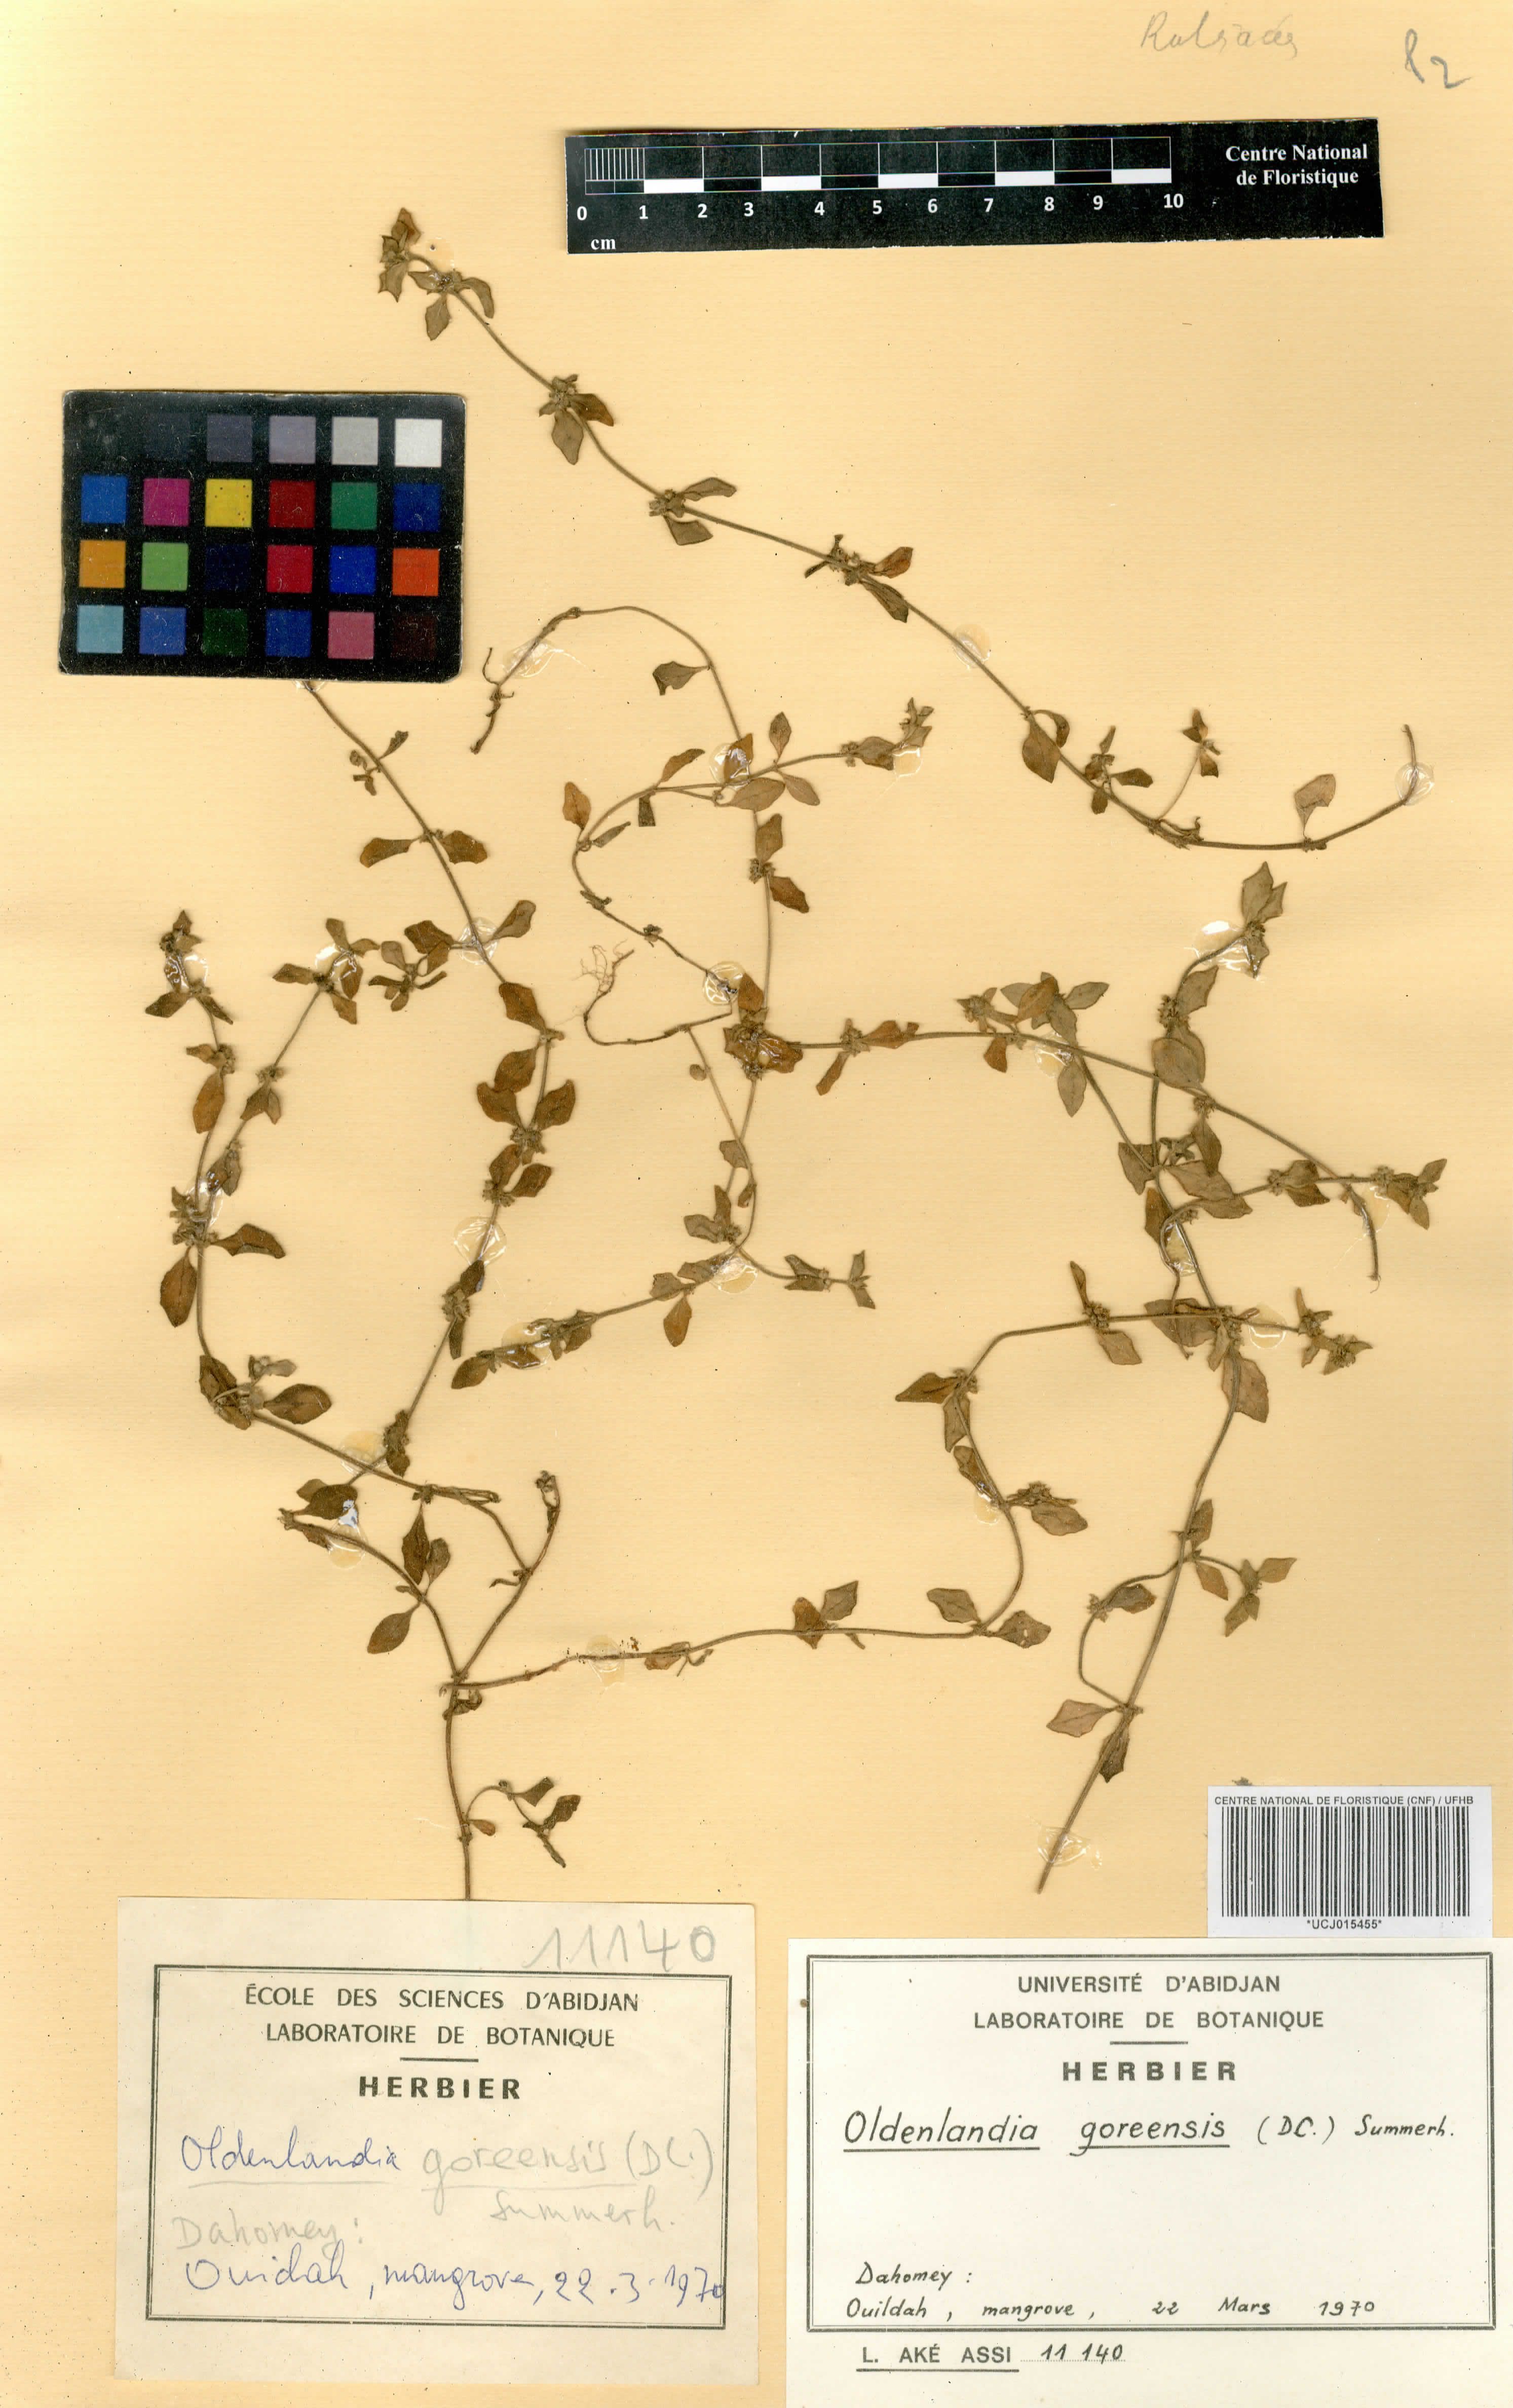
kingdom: Plantae
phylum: Tracheophyta
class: Magnoliopsida
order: Gentianales
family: Rubiaceae
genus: Edrastima
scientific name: Edrastima goreensis
